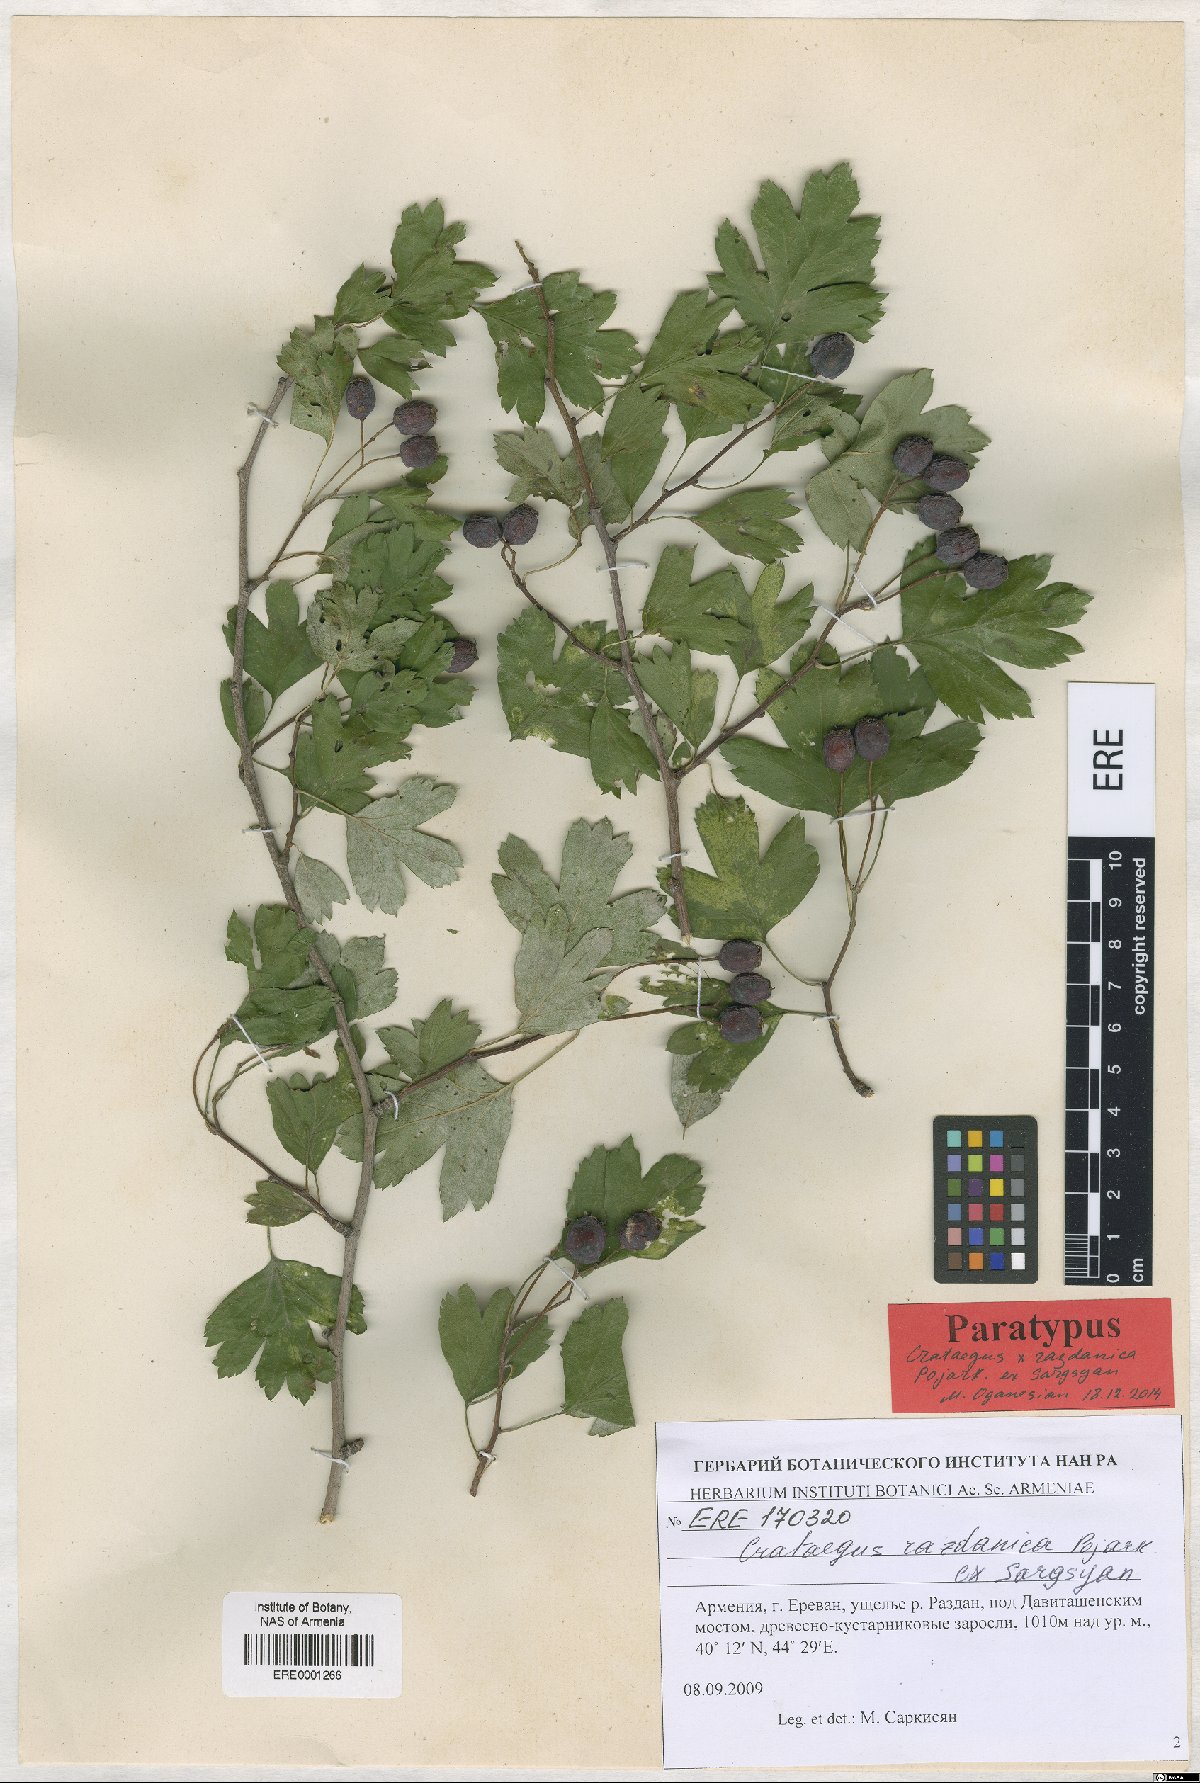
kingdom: Plantae
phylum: Tracheophyta
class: Magnoliopsida
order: Rosales
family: Rosaceae
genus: Crataegus
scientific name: Crataegus
